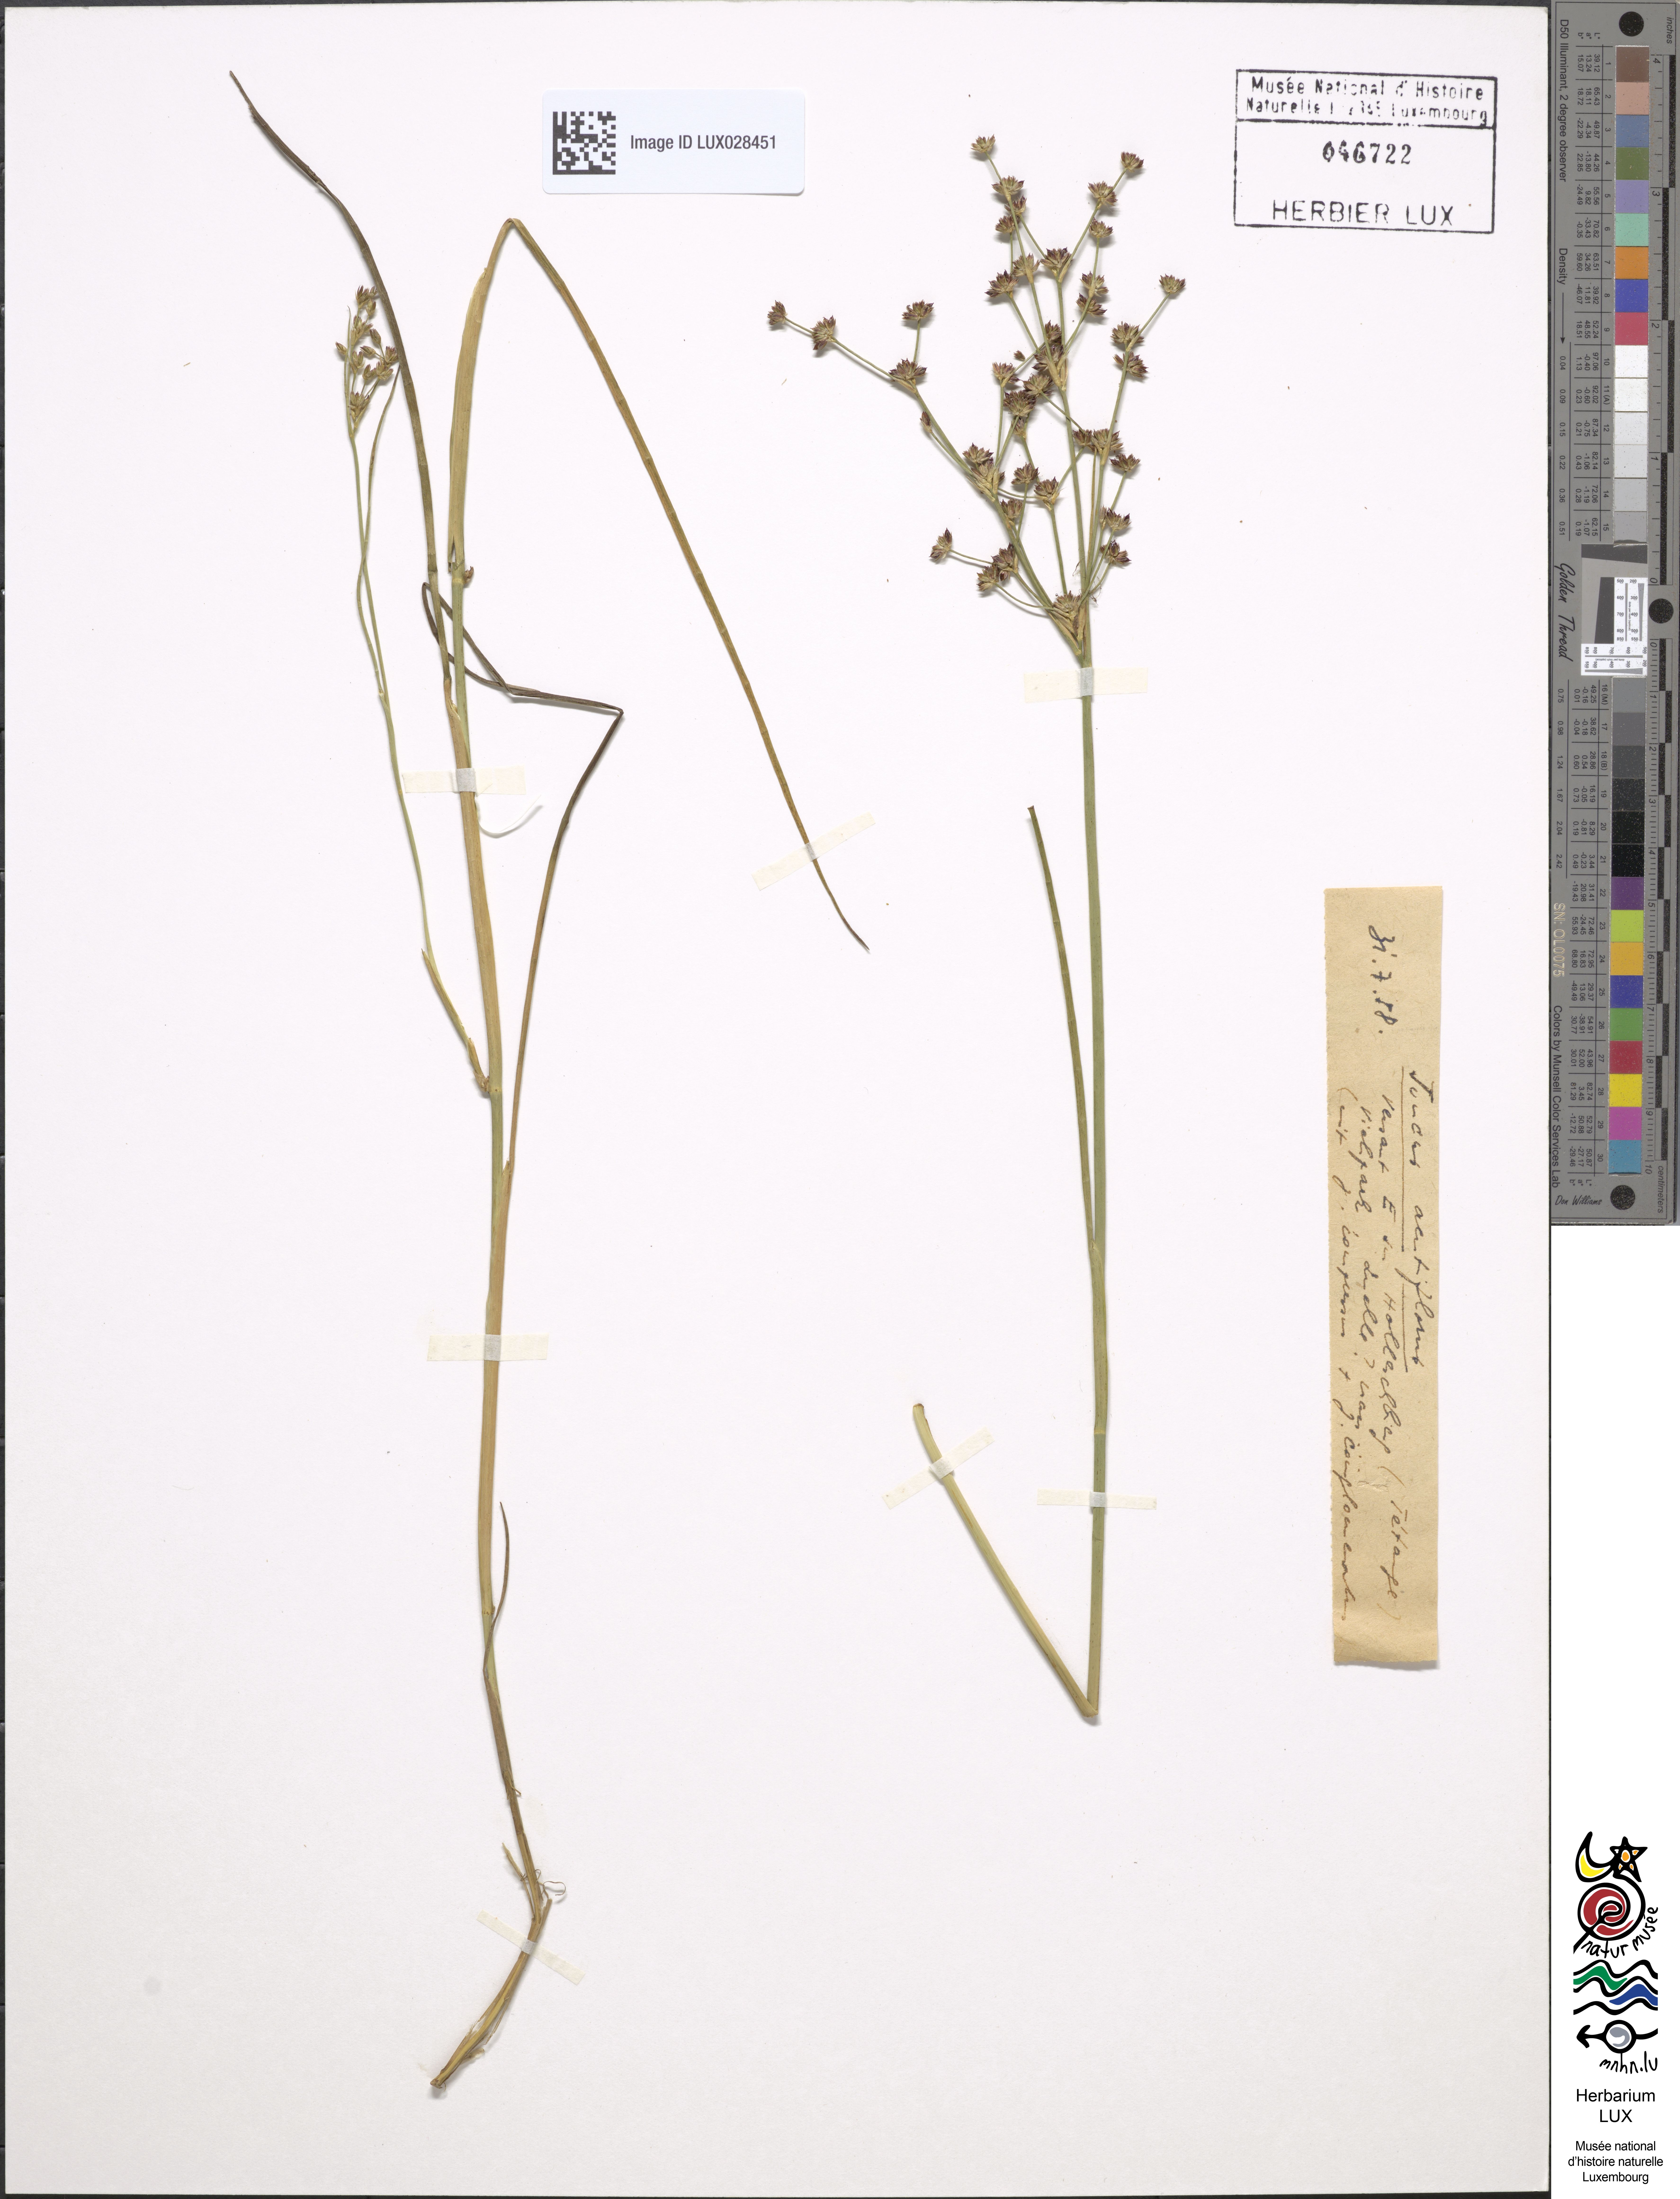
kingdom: Plantae
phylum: Tracheophyta
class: Liliopsida
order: Poales
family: Juncaceae
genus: Juncus
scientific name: Juncus acutiflorus
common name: Sharp-flowered rush
